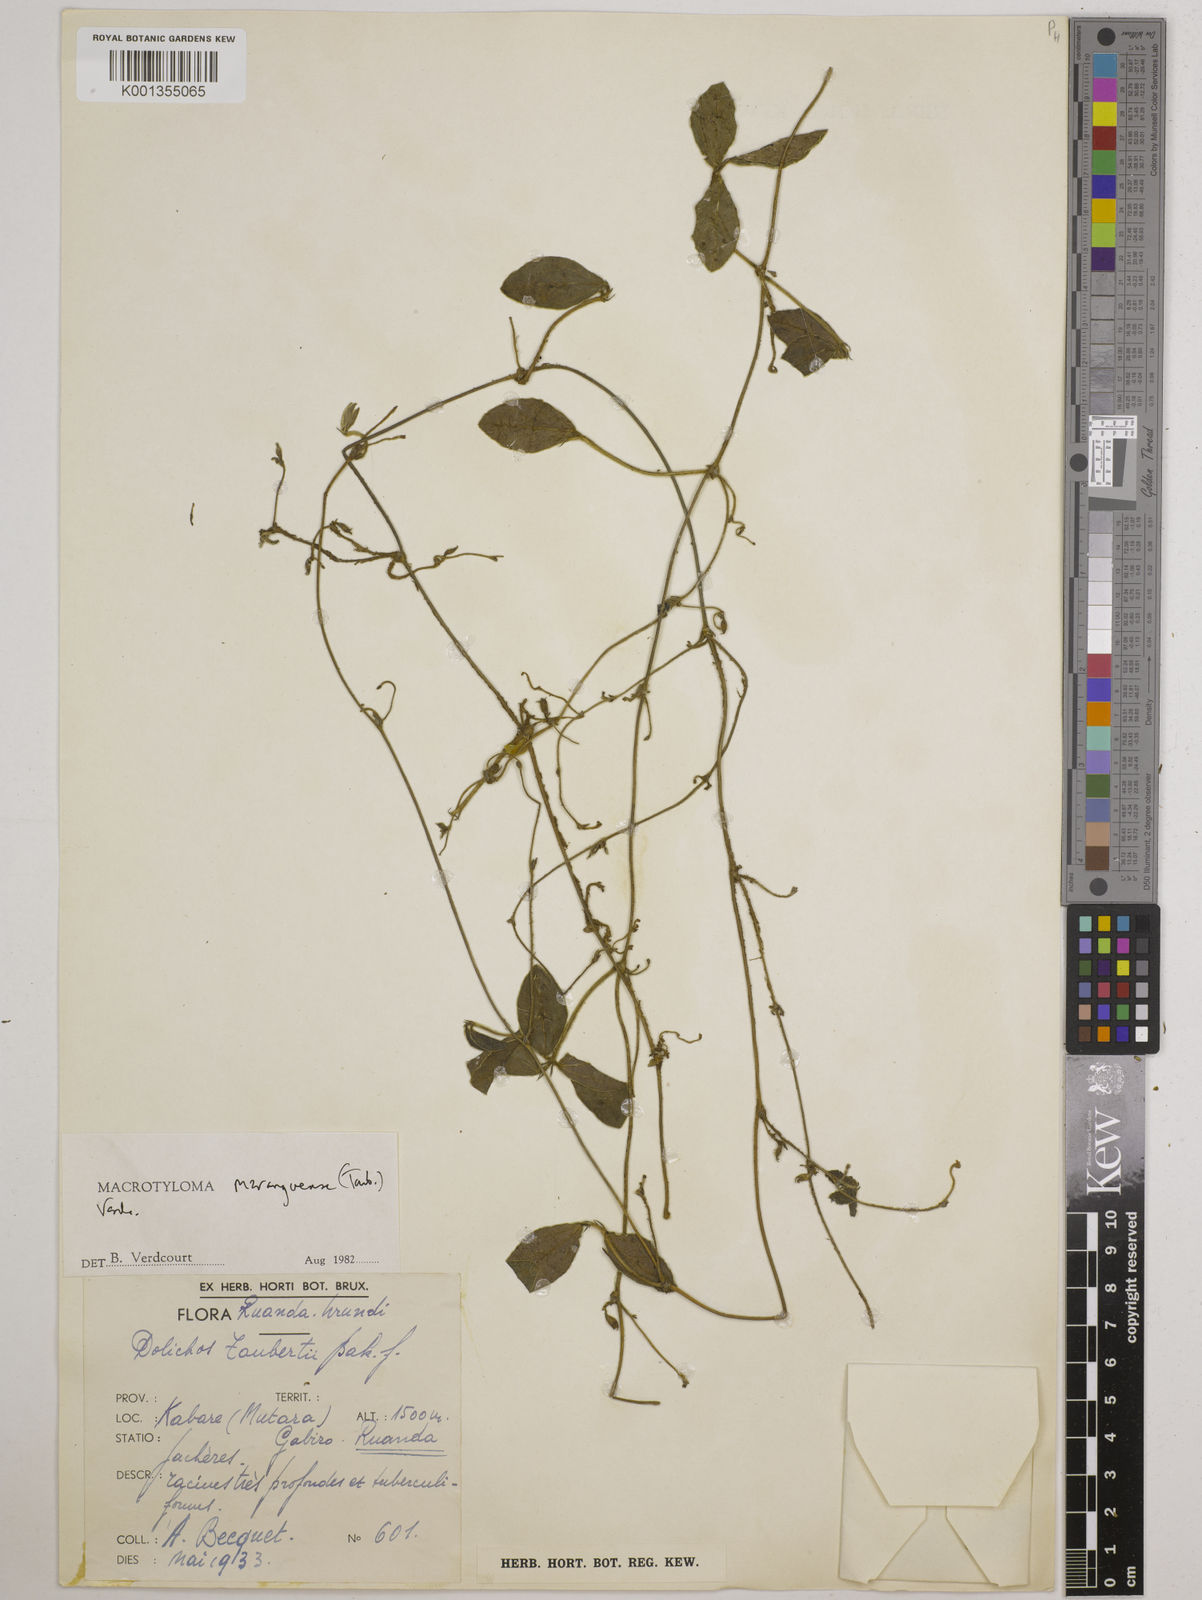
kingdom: Plantae
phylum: Tracheophyta
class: Magnoliopsida
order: Fabales
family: Fabaceae
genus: Macrotyloma
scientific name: Macrotyloma maranguense
